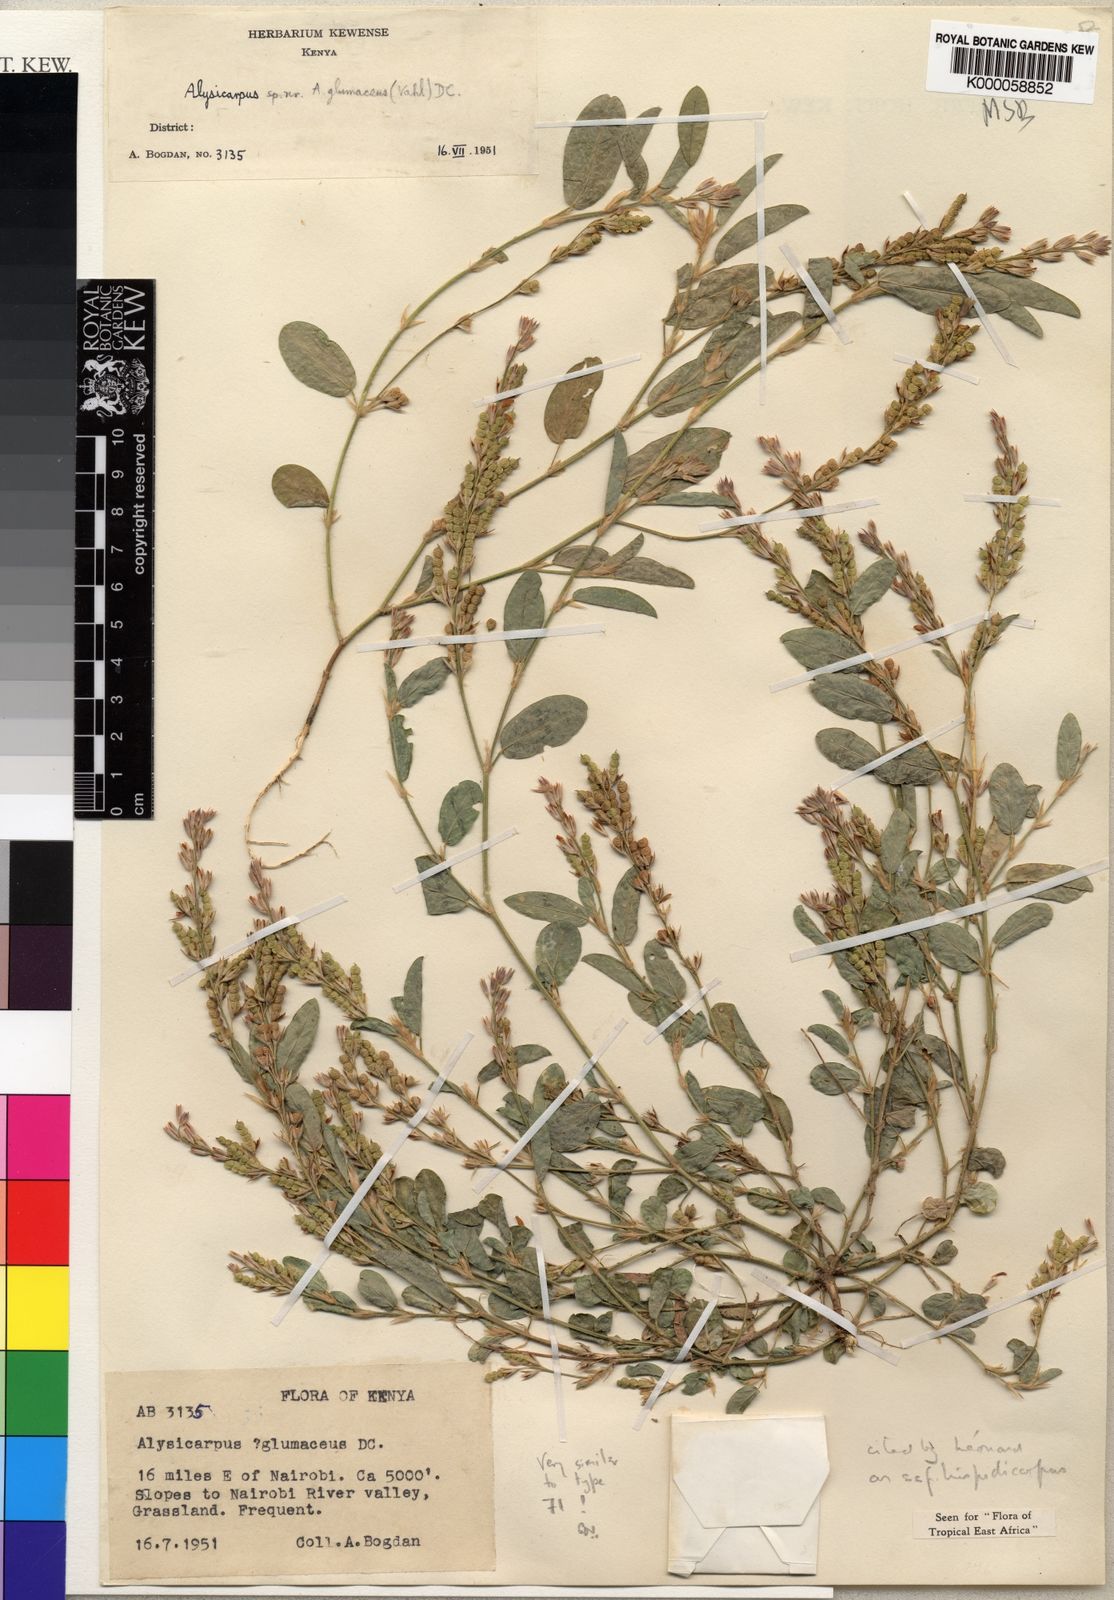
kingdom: Plantae
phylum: Tracheophyta
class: Magnoliopsida
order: Fabales
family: Fabaceae
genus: Alysicarpus
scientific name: Alysicarpus glumaceus
